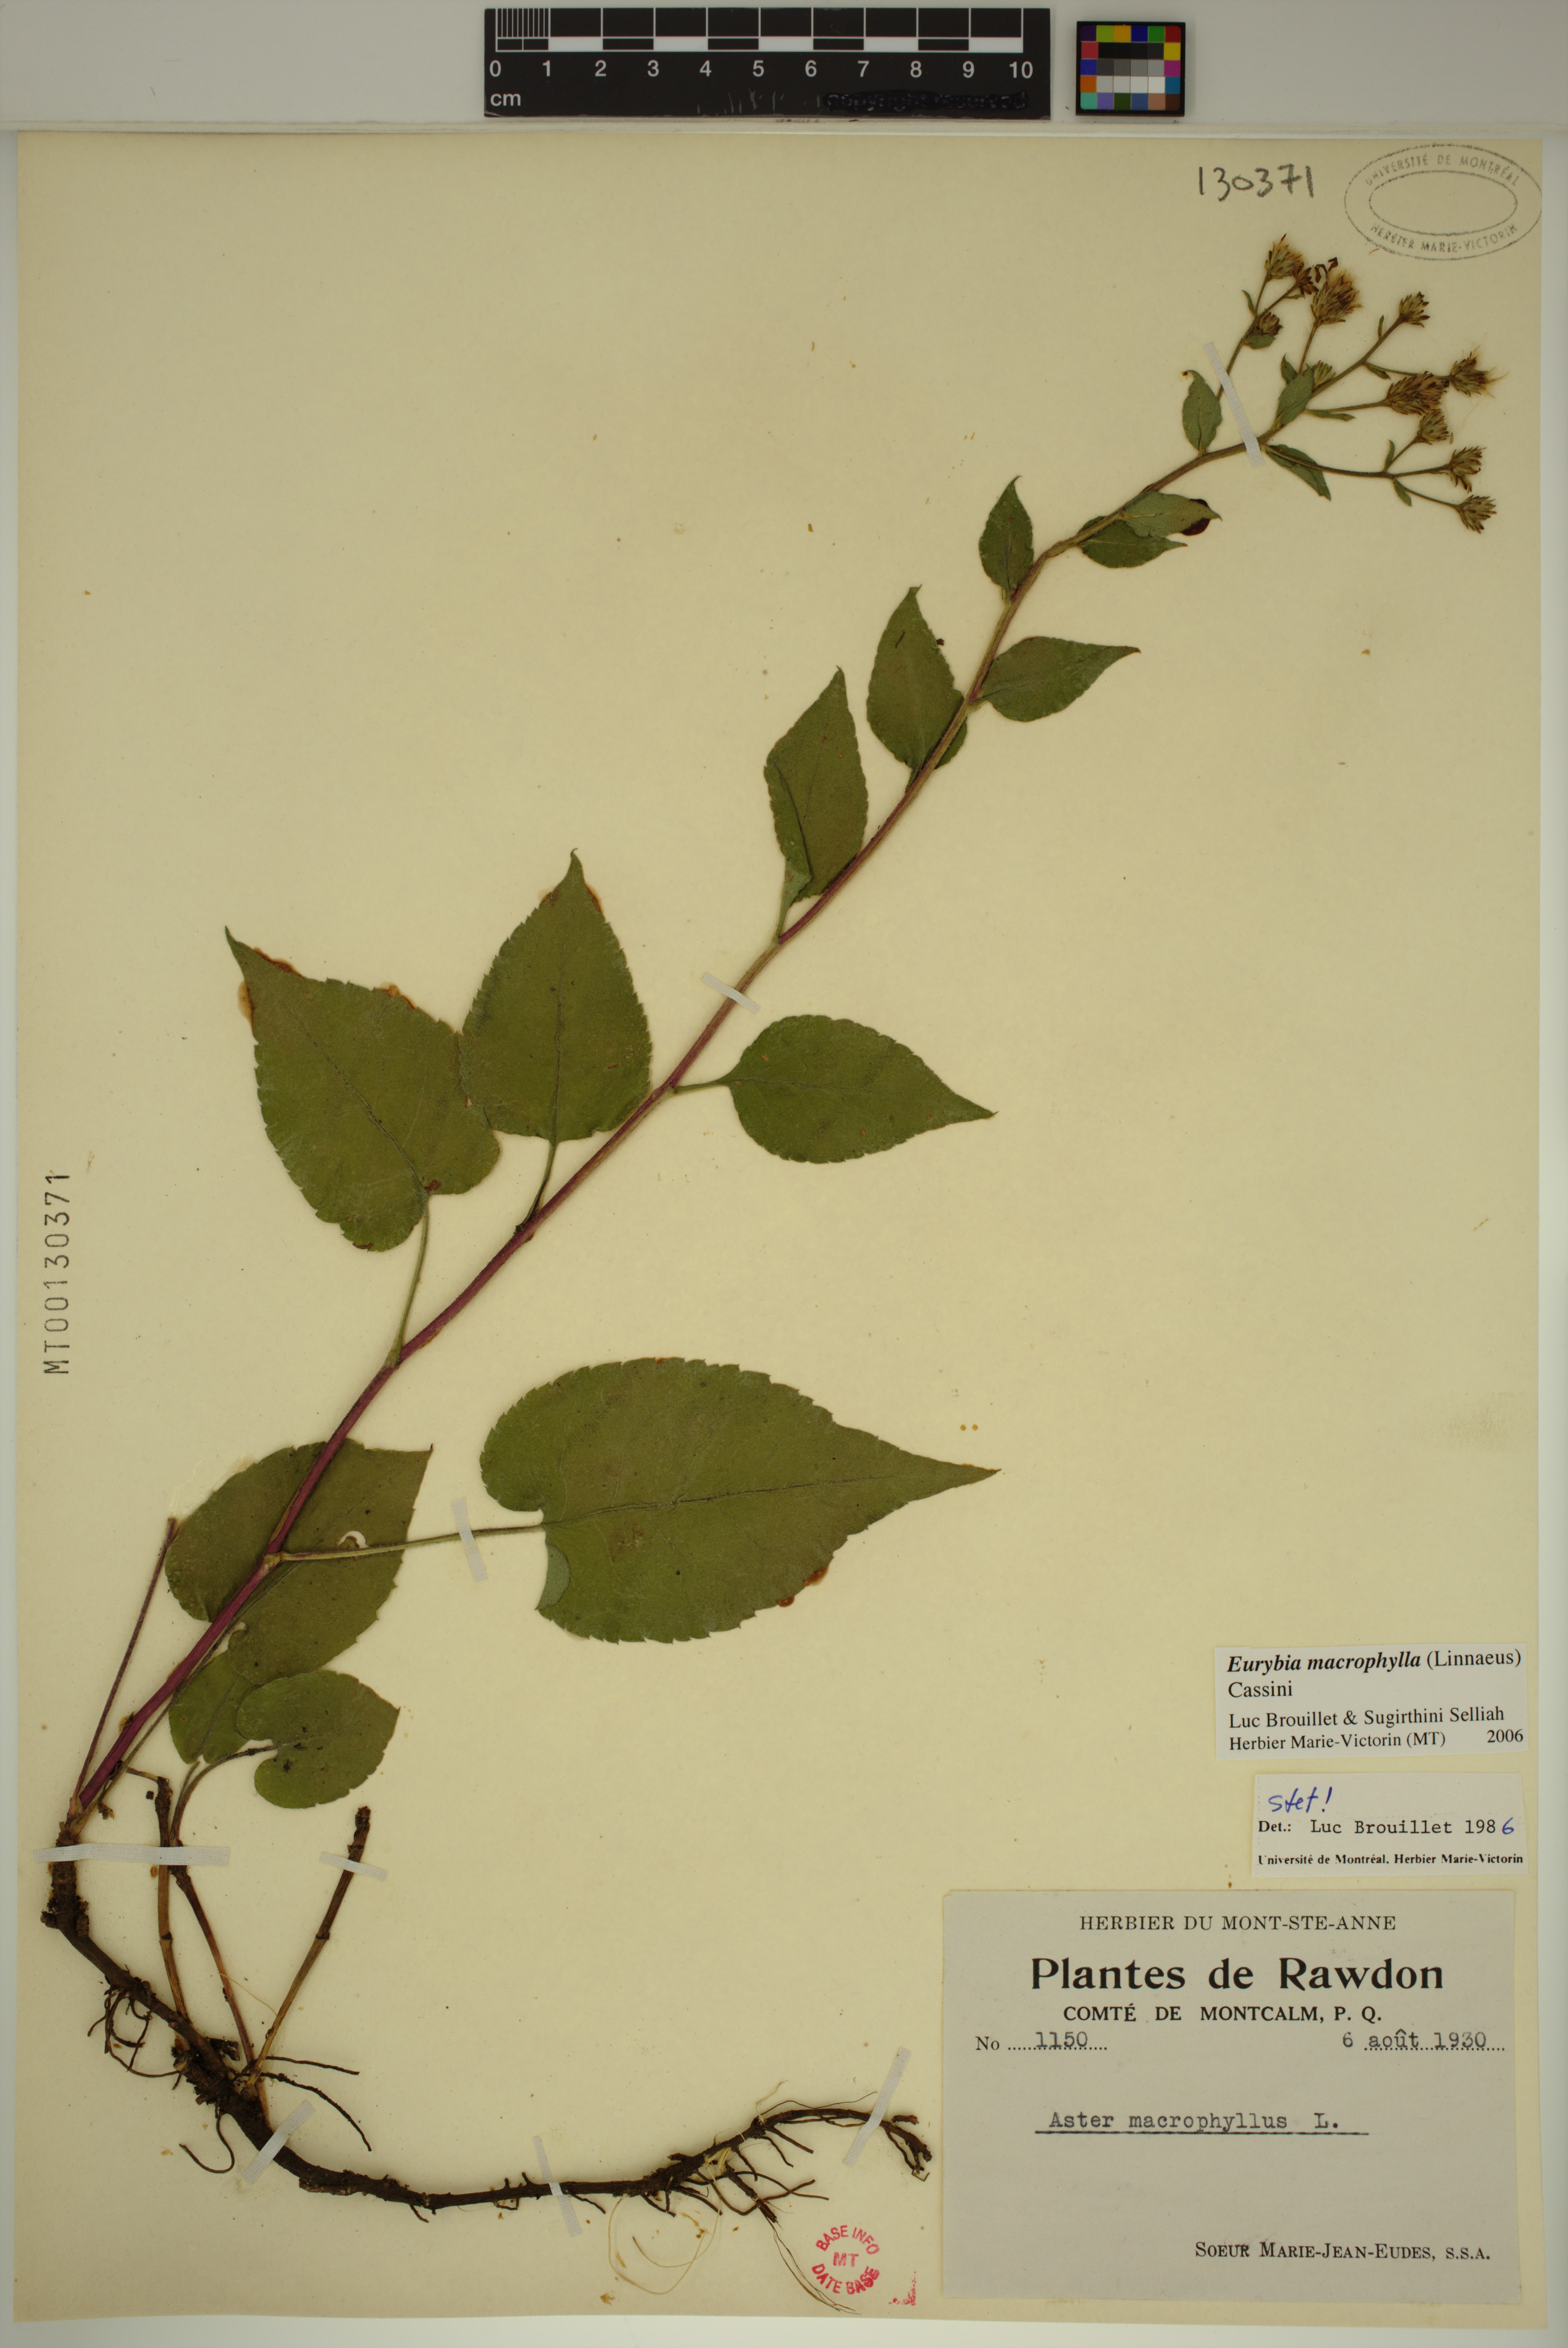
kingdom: Plantae
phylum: Tracheophyta
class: Magnoliopsida
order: Asterales
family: Asteraceae
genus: Eurybia
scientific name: Eurybia macrophylla
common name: Big-leaved aster
